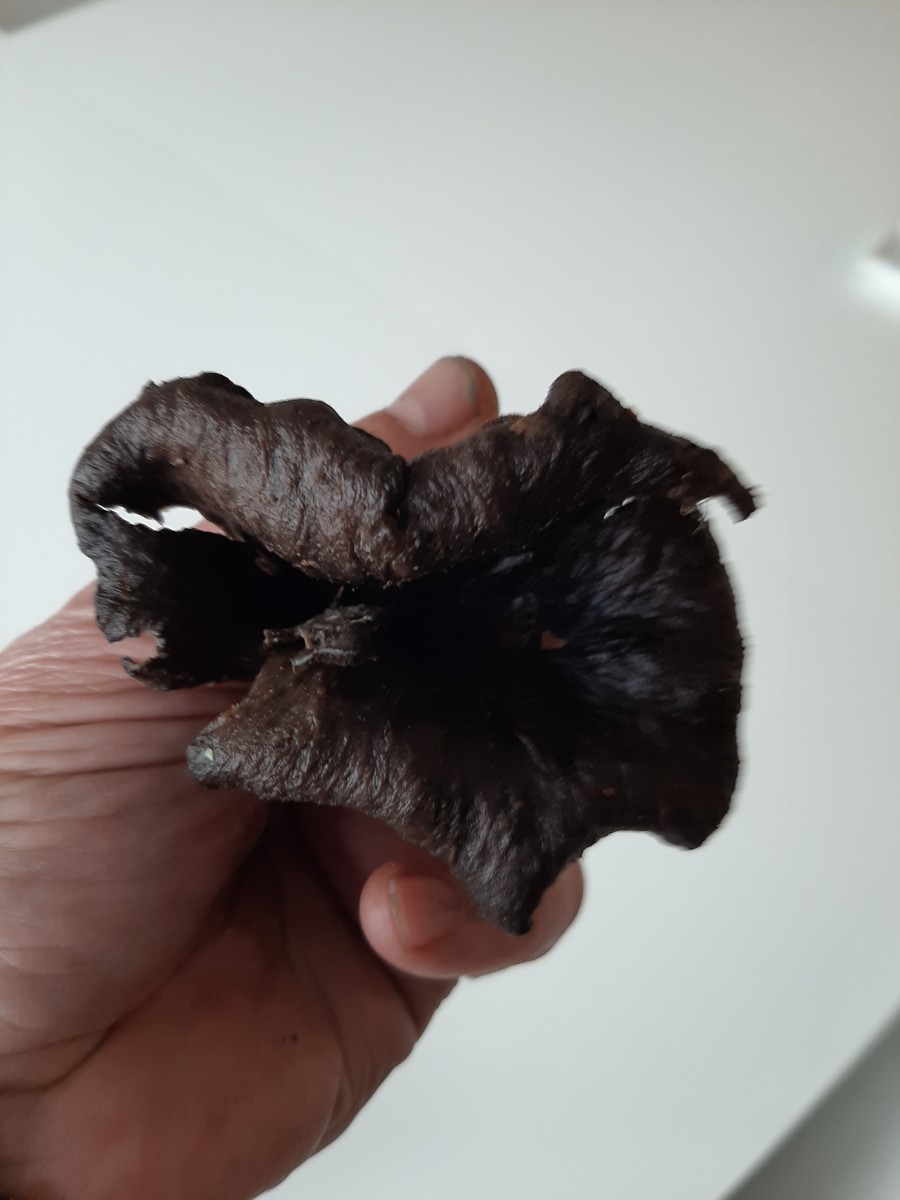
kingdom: Fungi
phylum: Basidiomycota
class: Agaricomycetes
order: Cantharellales
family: Hydnaceae
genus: Craterellus
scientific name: Craterellus cornucopioides
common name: trompetsvamp
